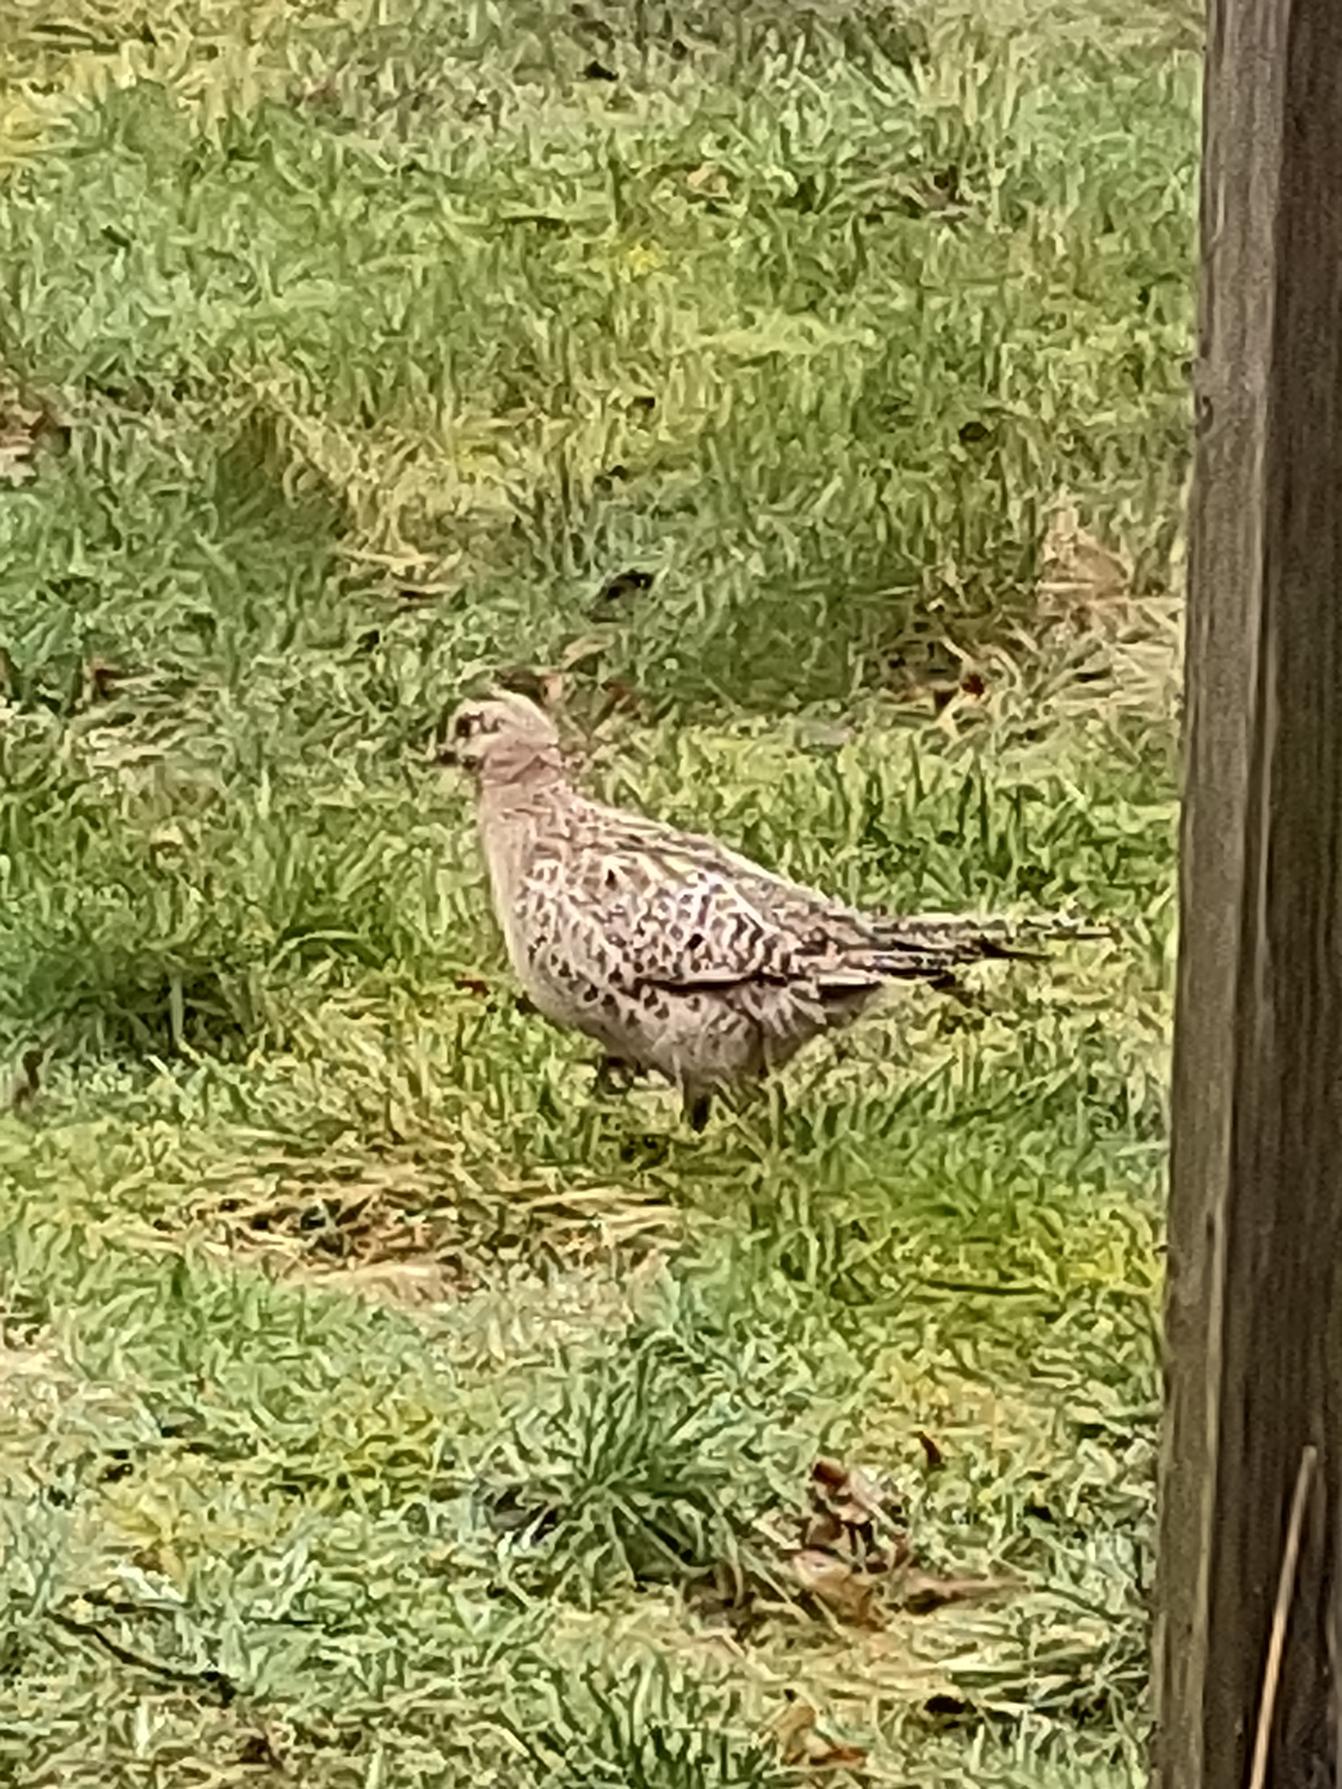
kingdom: Animalia
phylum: Chordata
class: Aves
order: Galliformes
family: Phasianidae
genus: Phasianus
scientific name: Phasianus colchicus
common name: Fasan
